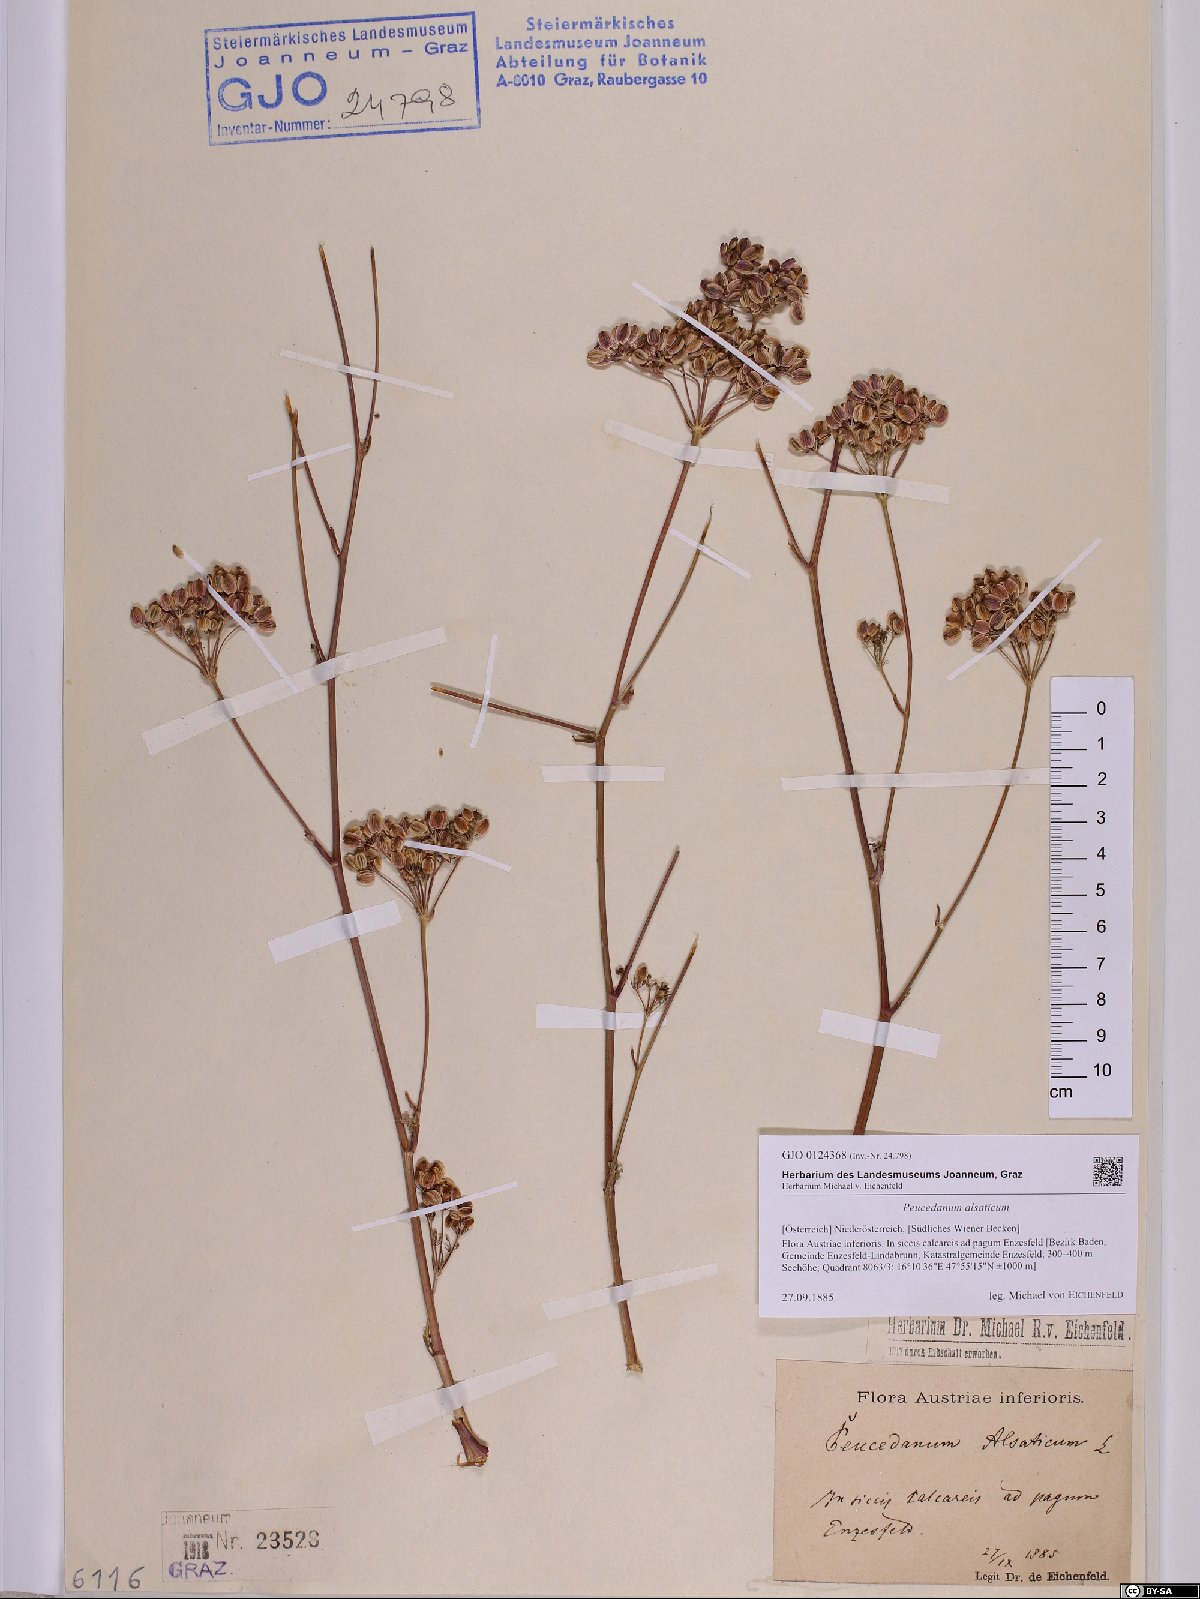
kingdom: Plantae
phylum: Tracheophyta
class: Magnoliopsida
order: Apiales
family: Apiaceae
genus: Xanthoselinum
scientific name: Xanthoselinum alsaticum
